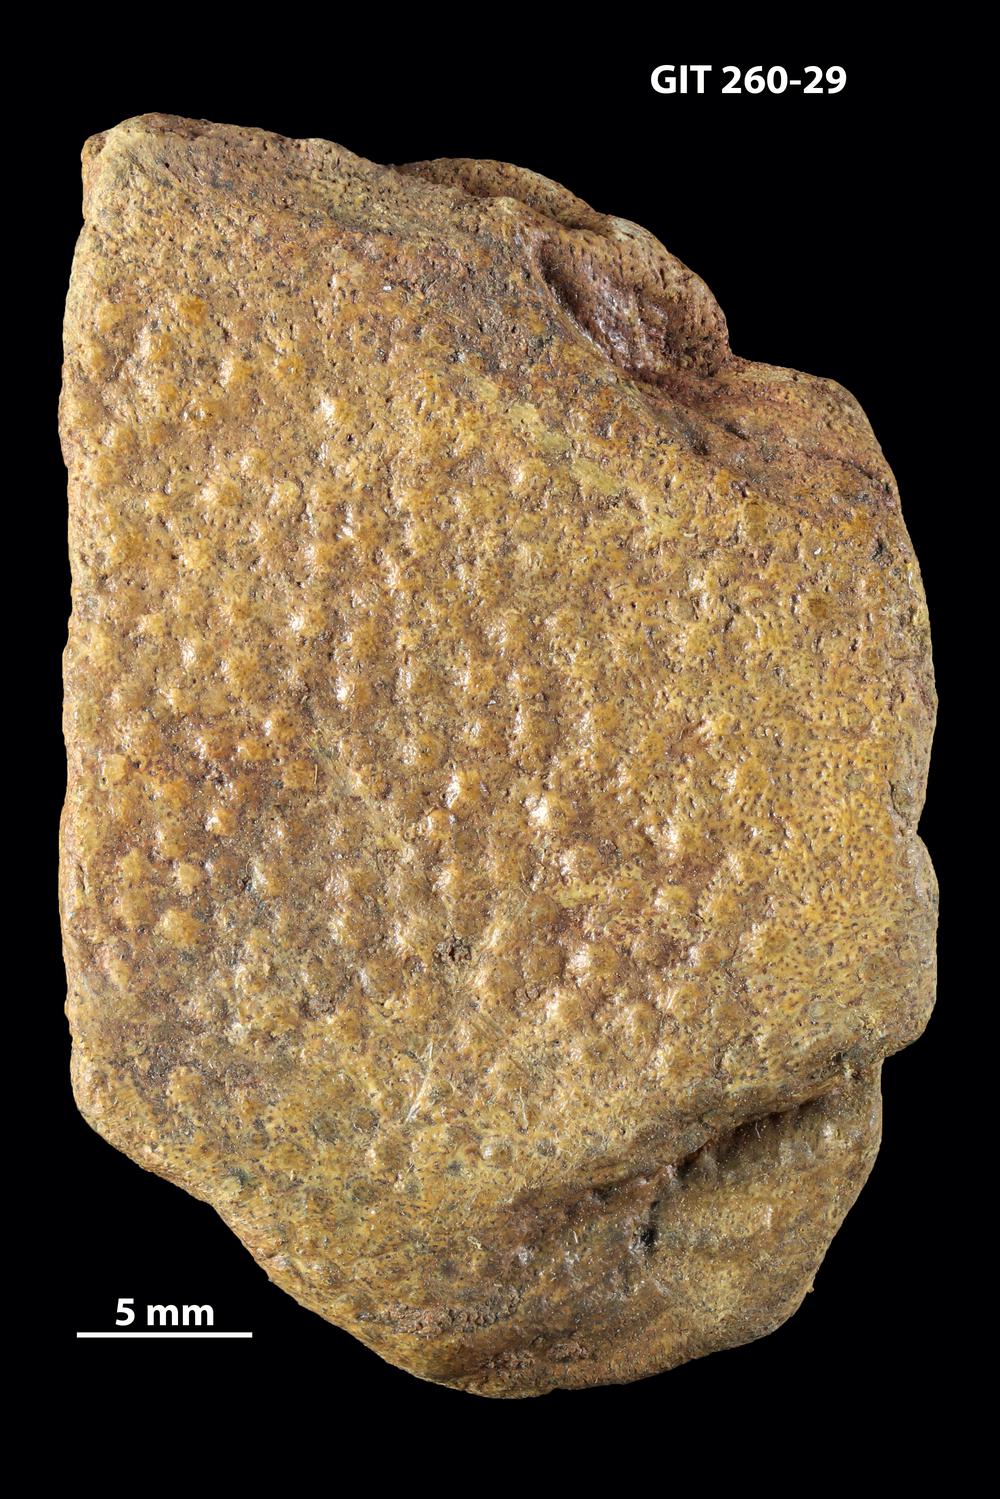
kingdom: Animalia
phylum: Chordata
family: Homostiidae
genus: Homostius
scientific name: Homostius
